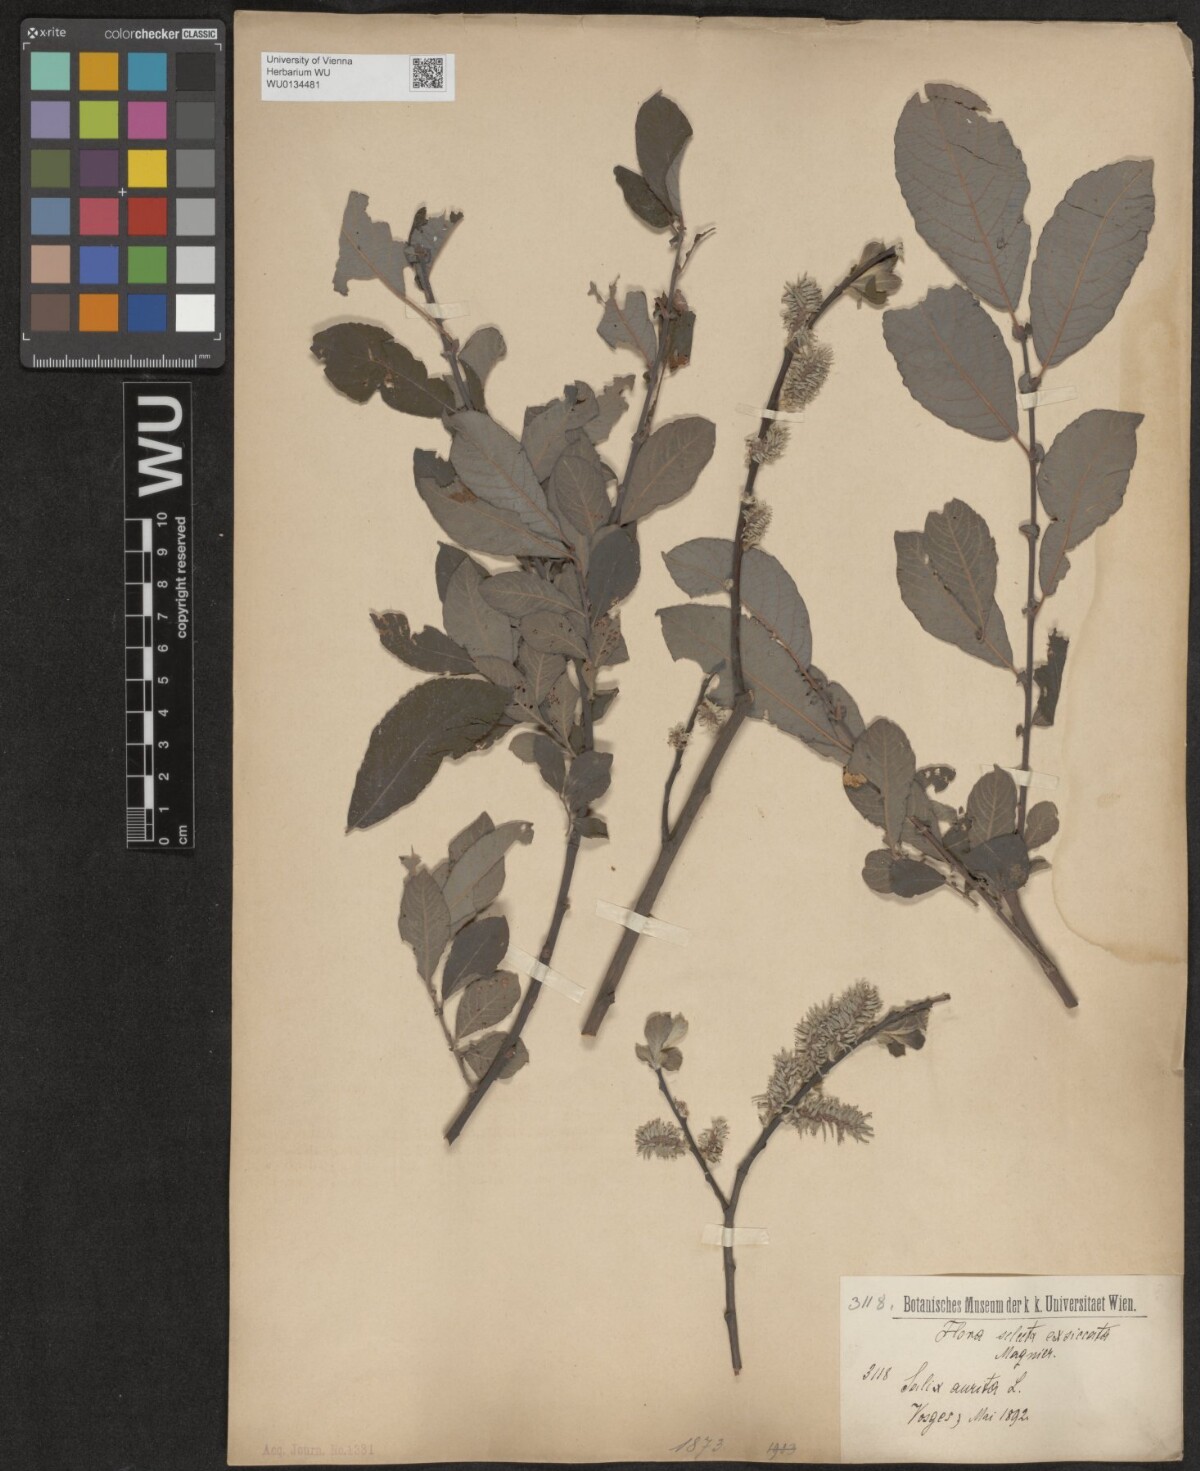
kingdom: Plantae
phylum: Tracheophyta
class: Magnoliopsida
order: Malpighiales
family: Salicaceae
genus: Salix
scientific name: Salix aurita
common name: Eared willow
